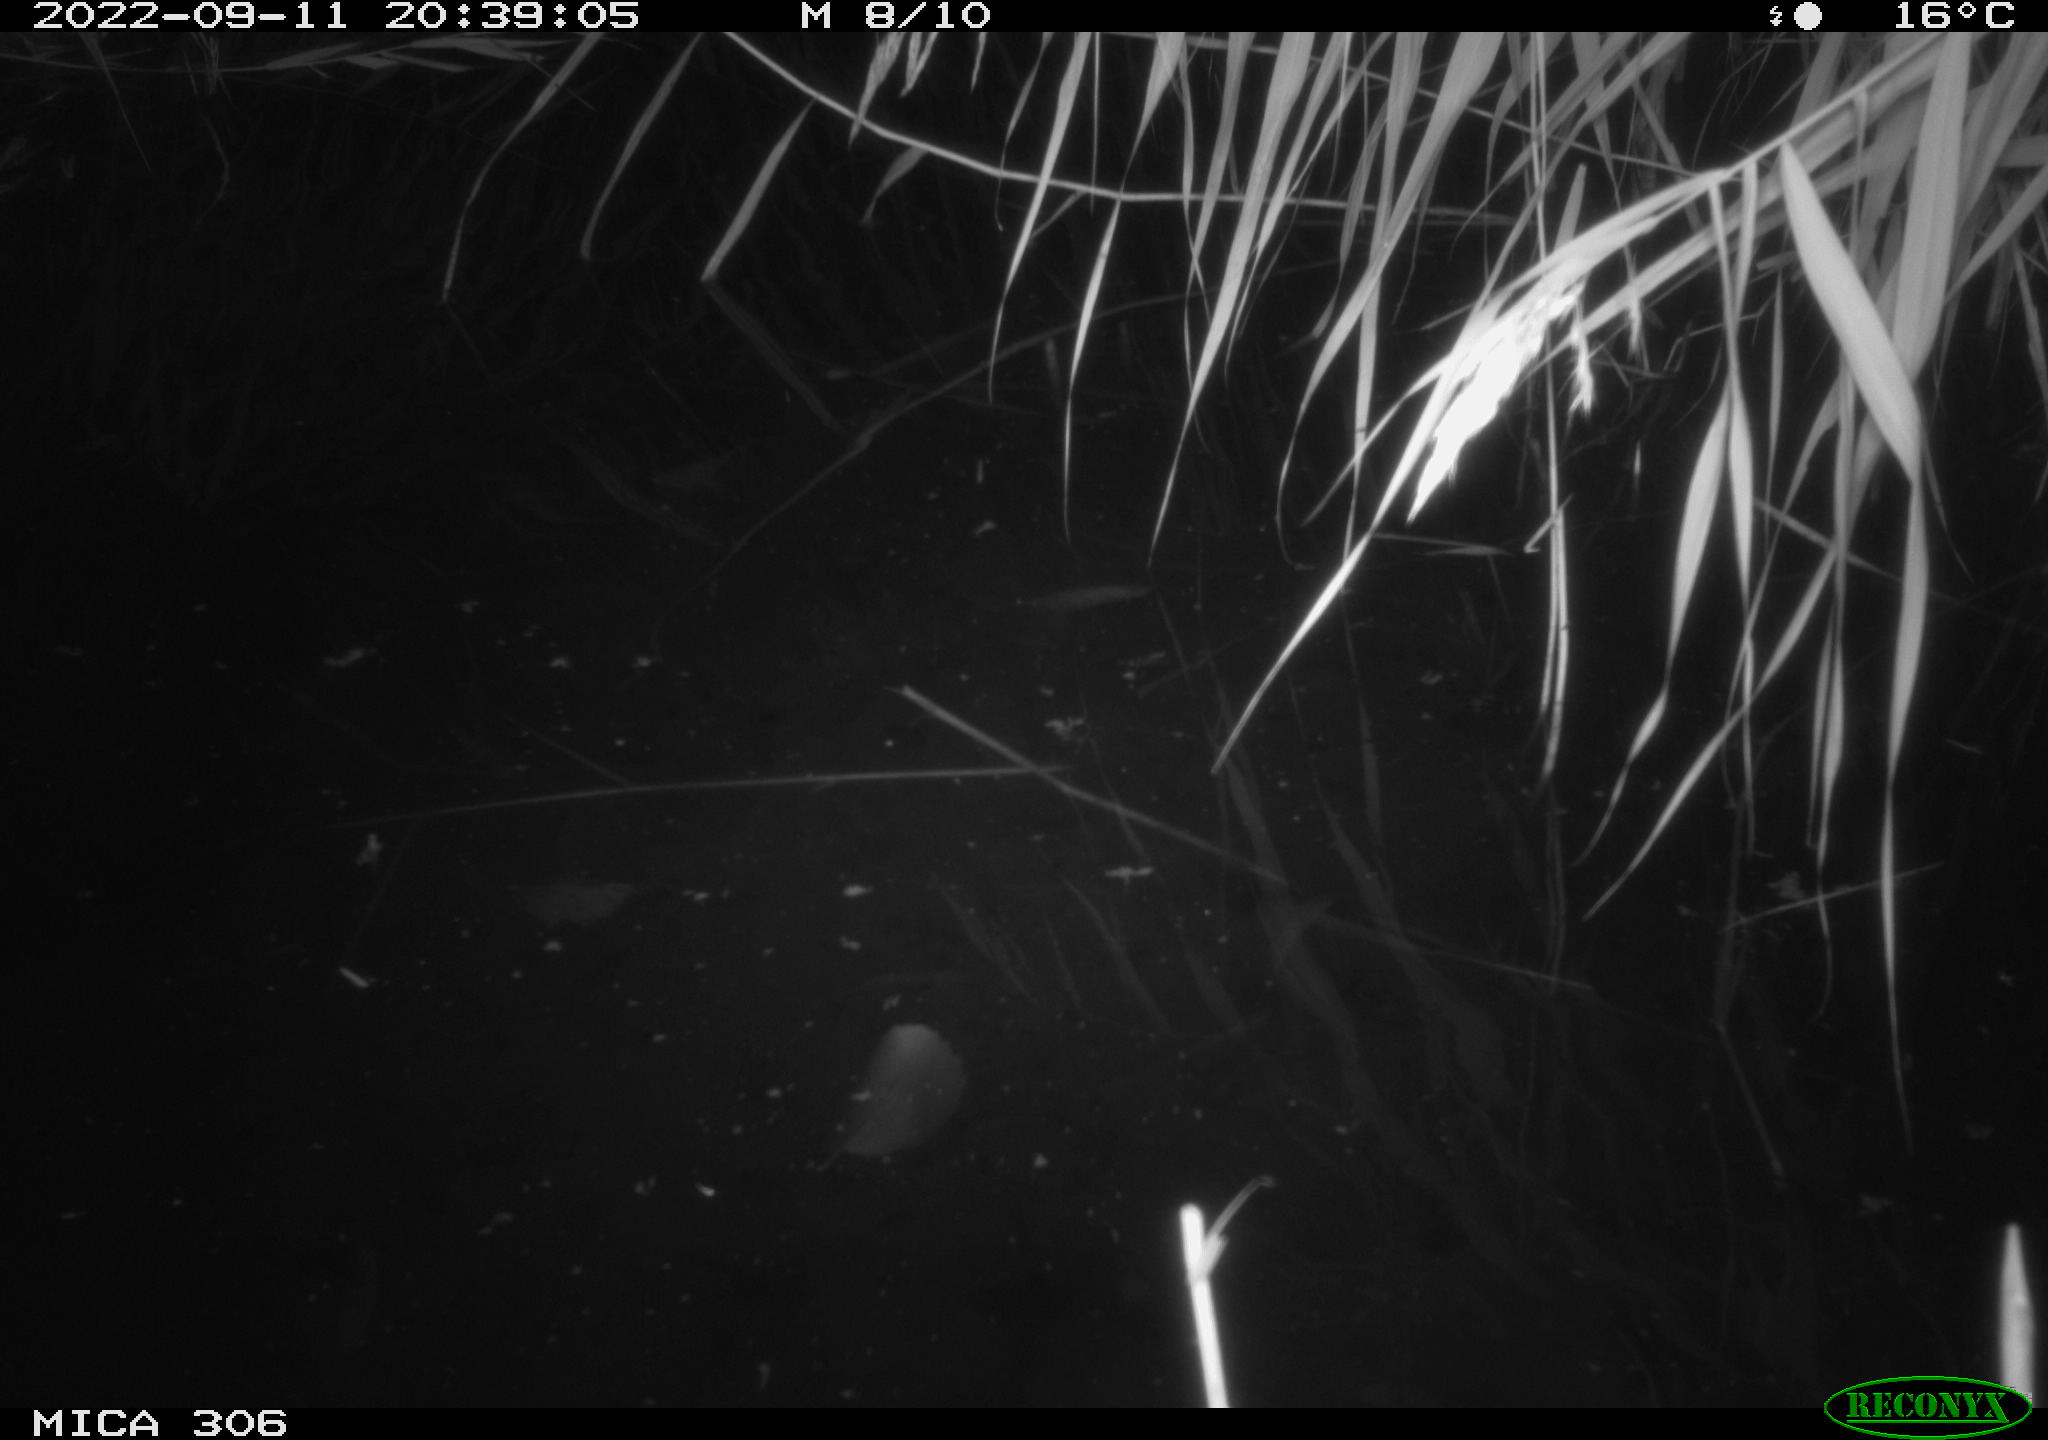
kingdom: Animalia
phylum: Chordata
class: Mammalia
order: Rodentia
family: Muridae
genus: Rattus
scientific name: Rattus norvegicus
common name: Brown rat
